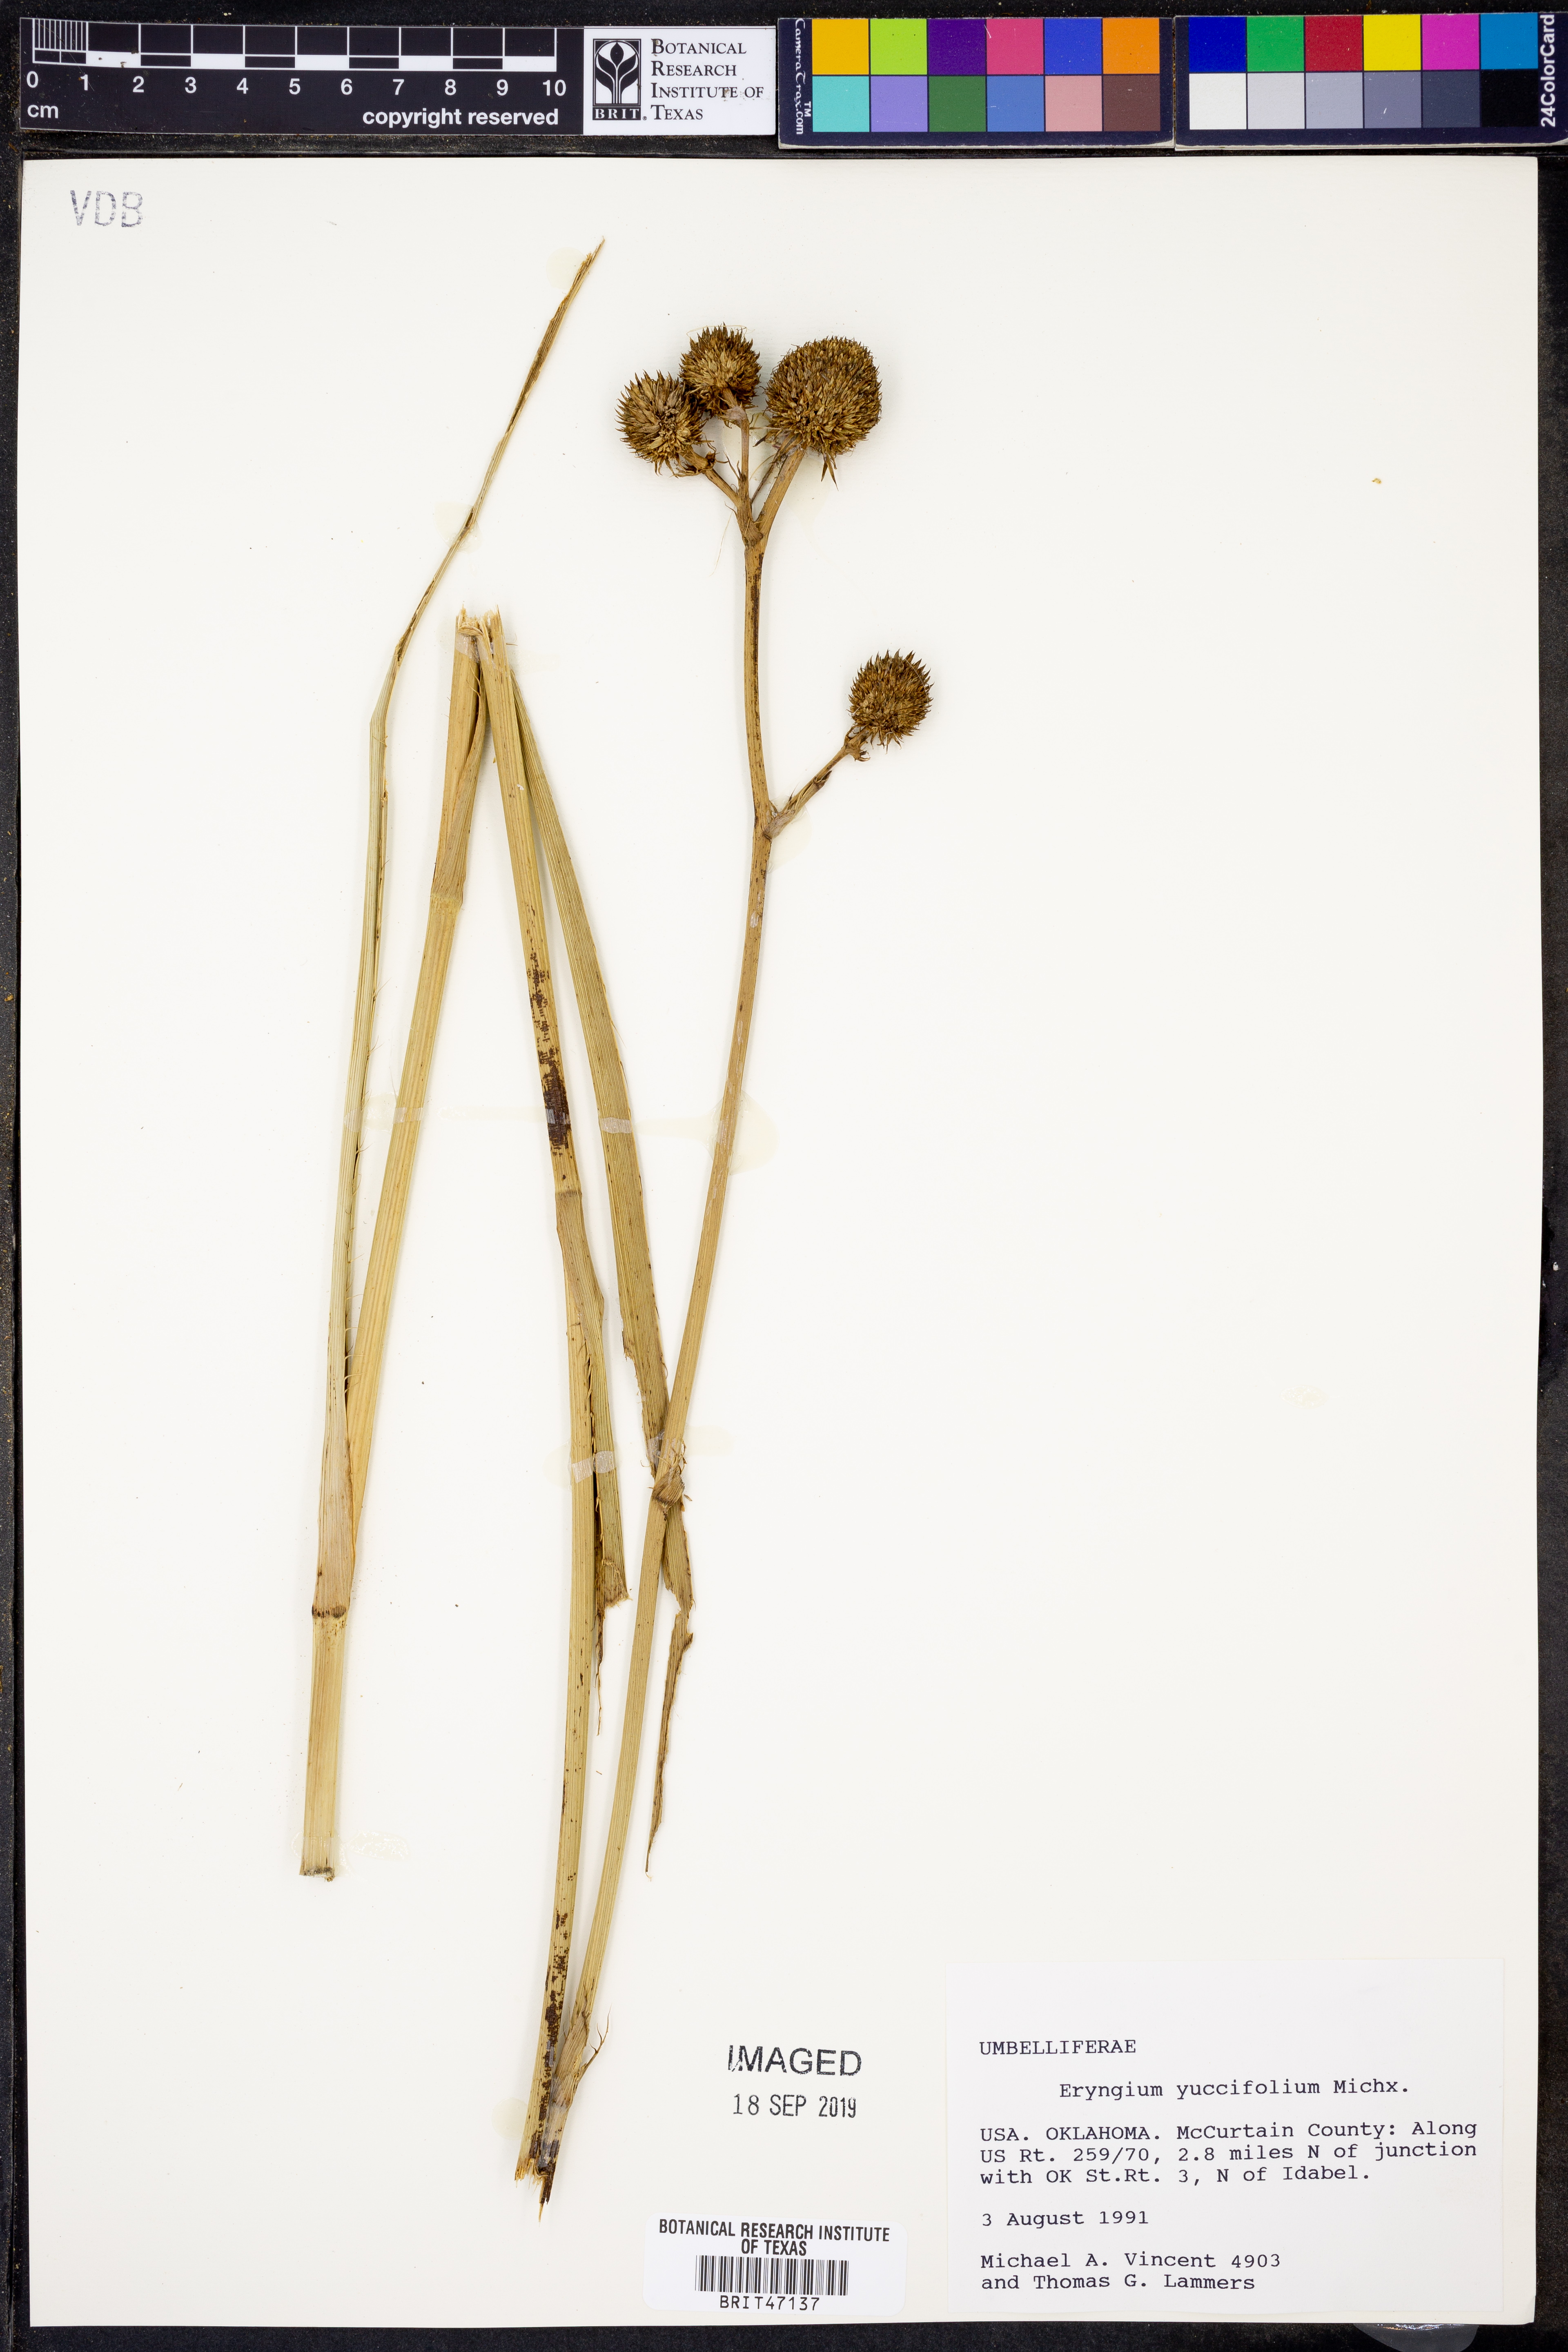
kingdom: Plantae
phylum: Tracheophyta
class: Magnoliopsida
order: Apiales
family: Apiaceae
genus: Eryngium
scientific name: Eryngium yuccifolium
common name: Button eryngo
